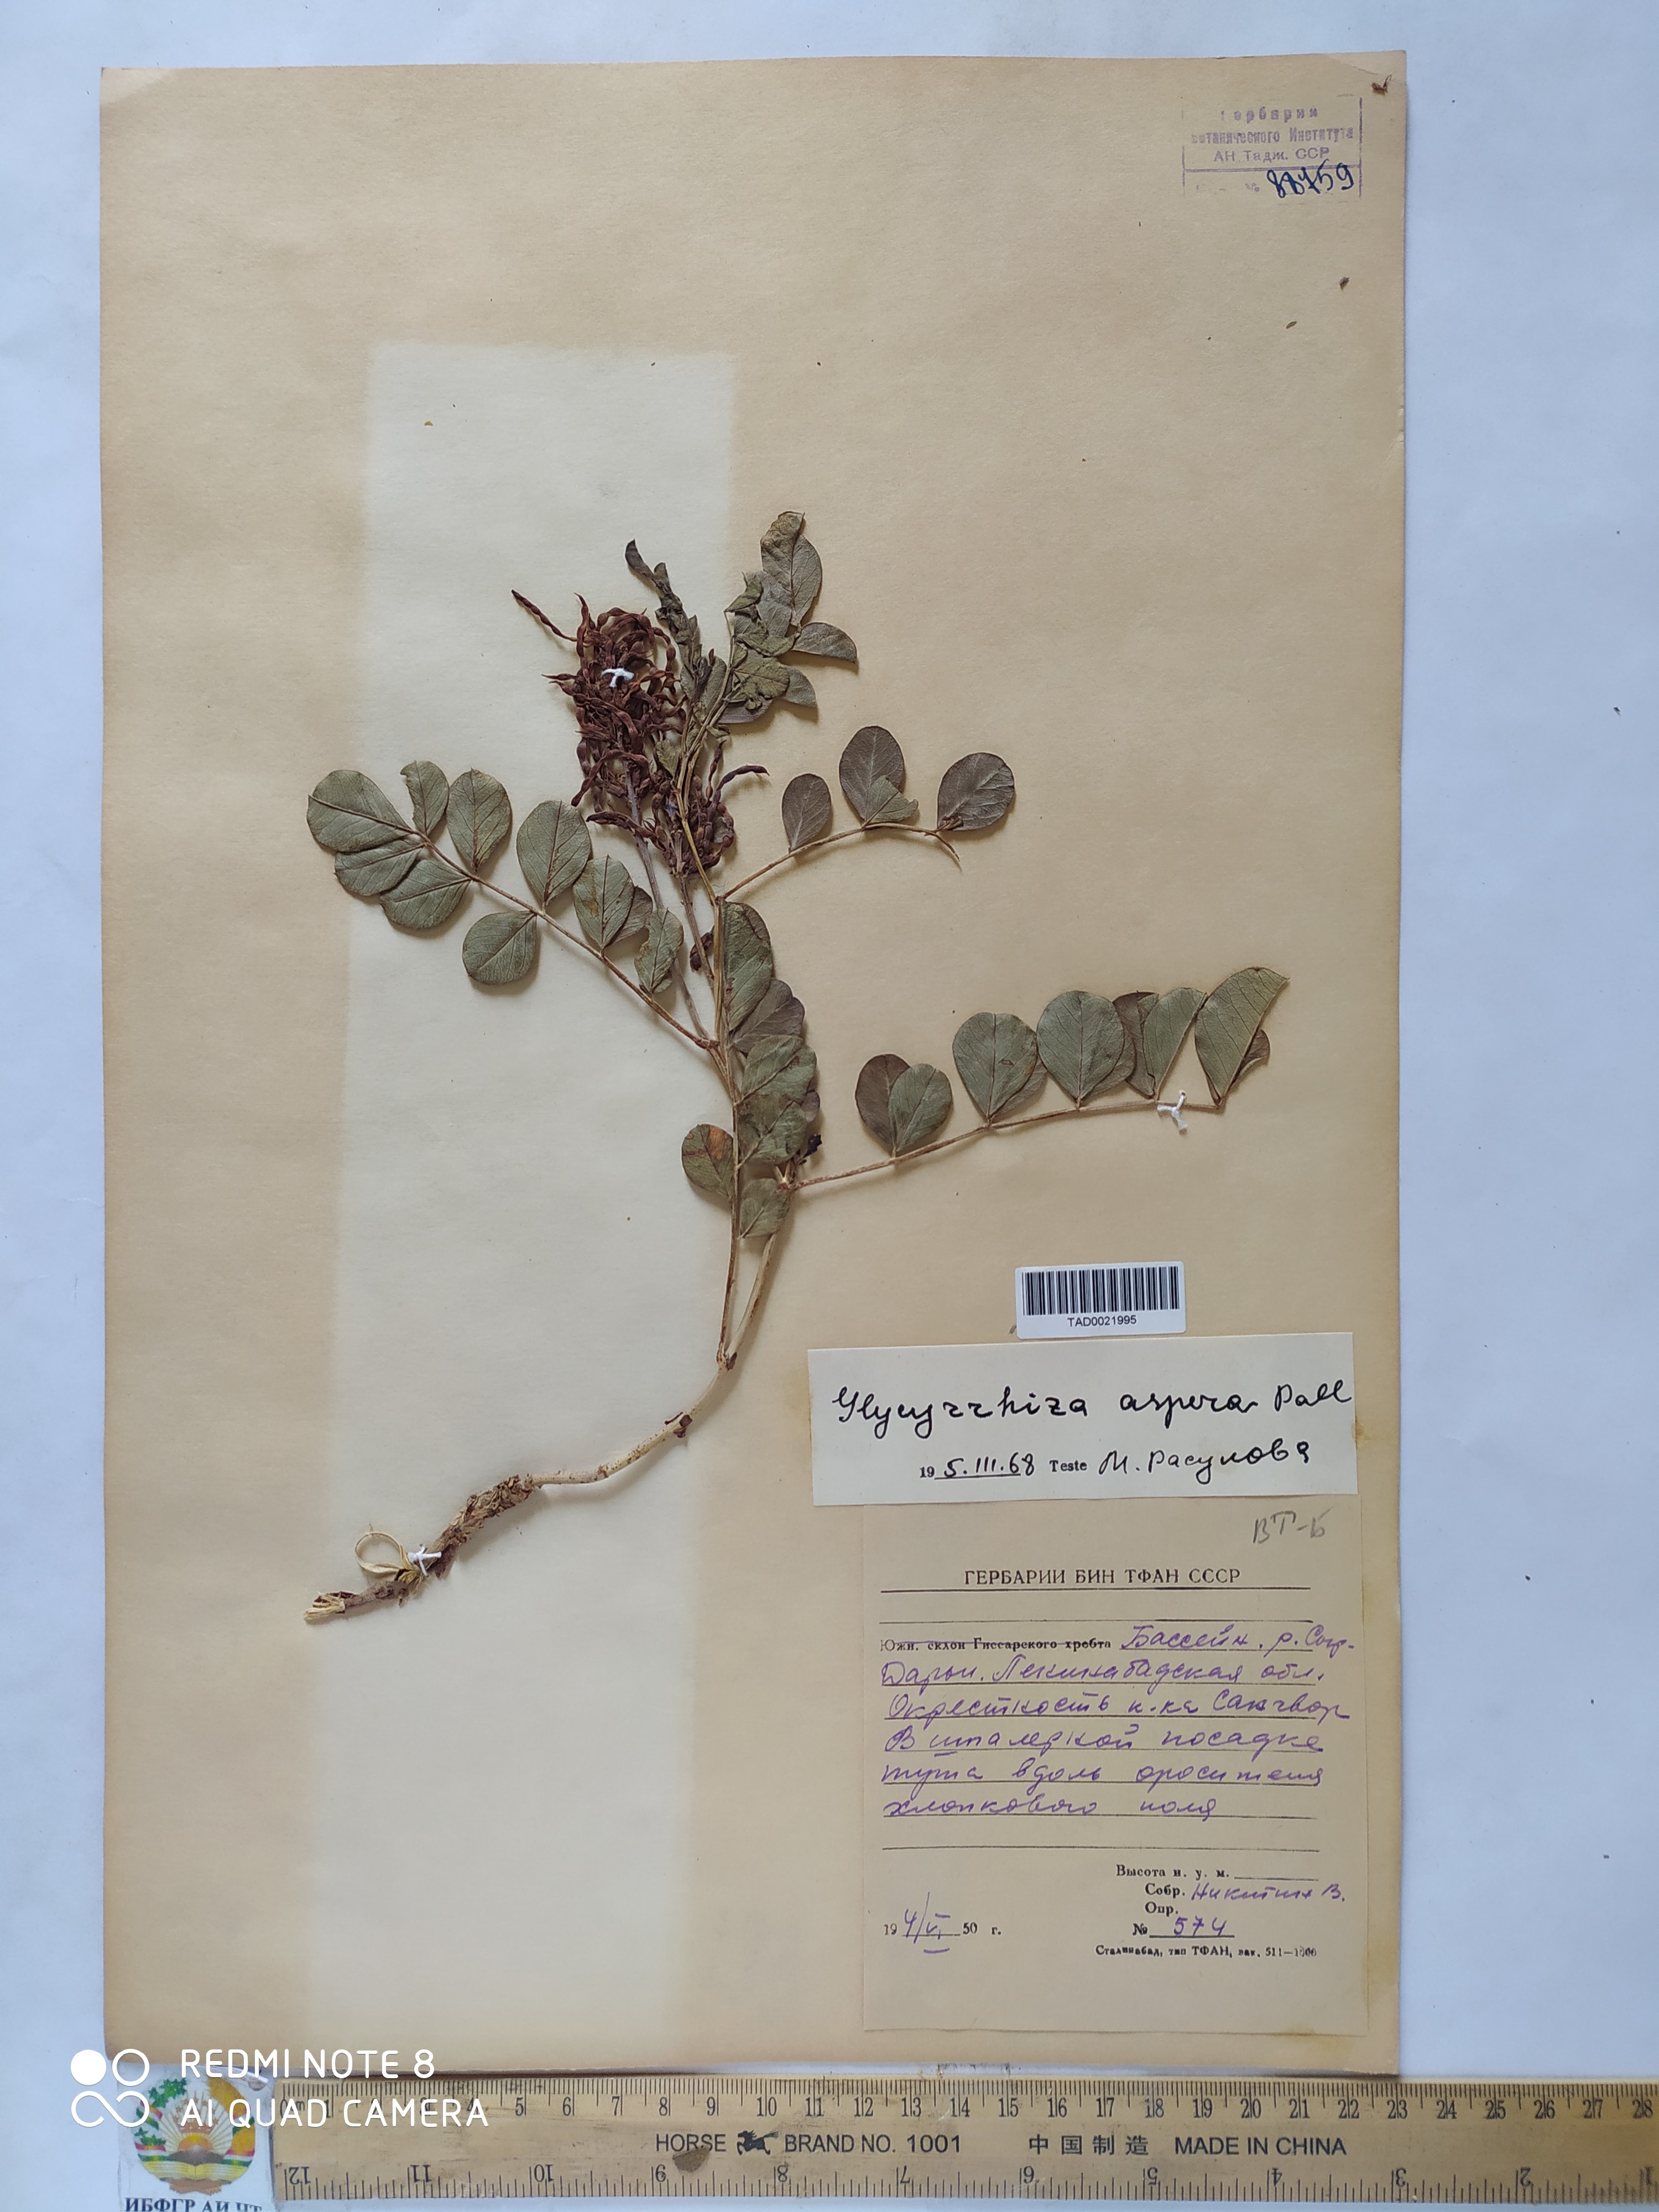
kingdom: Plantae
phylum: Tracheophyta
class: Magnoliopsida
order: Fabales
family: Fabaceae
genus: Glycyrrhiza
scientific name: Glycyrrhiza glabra
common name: Liquorice
